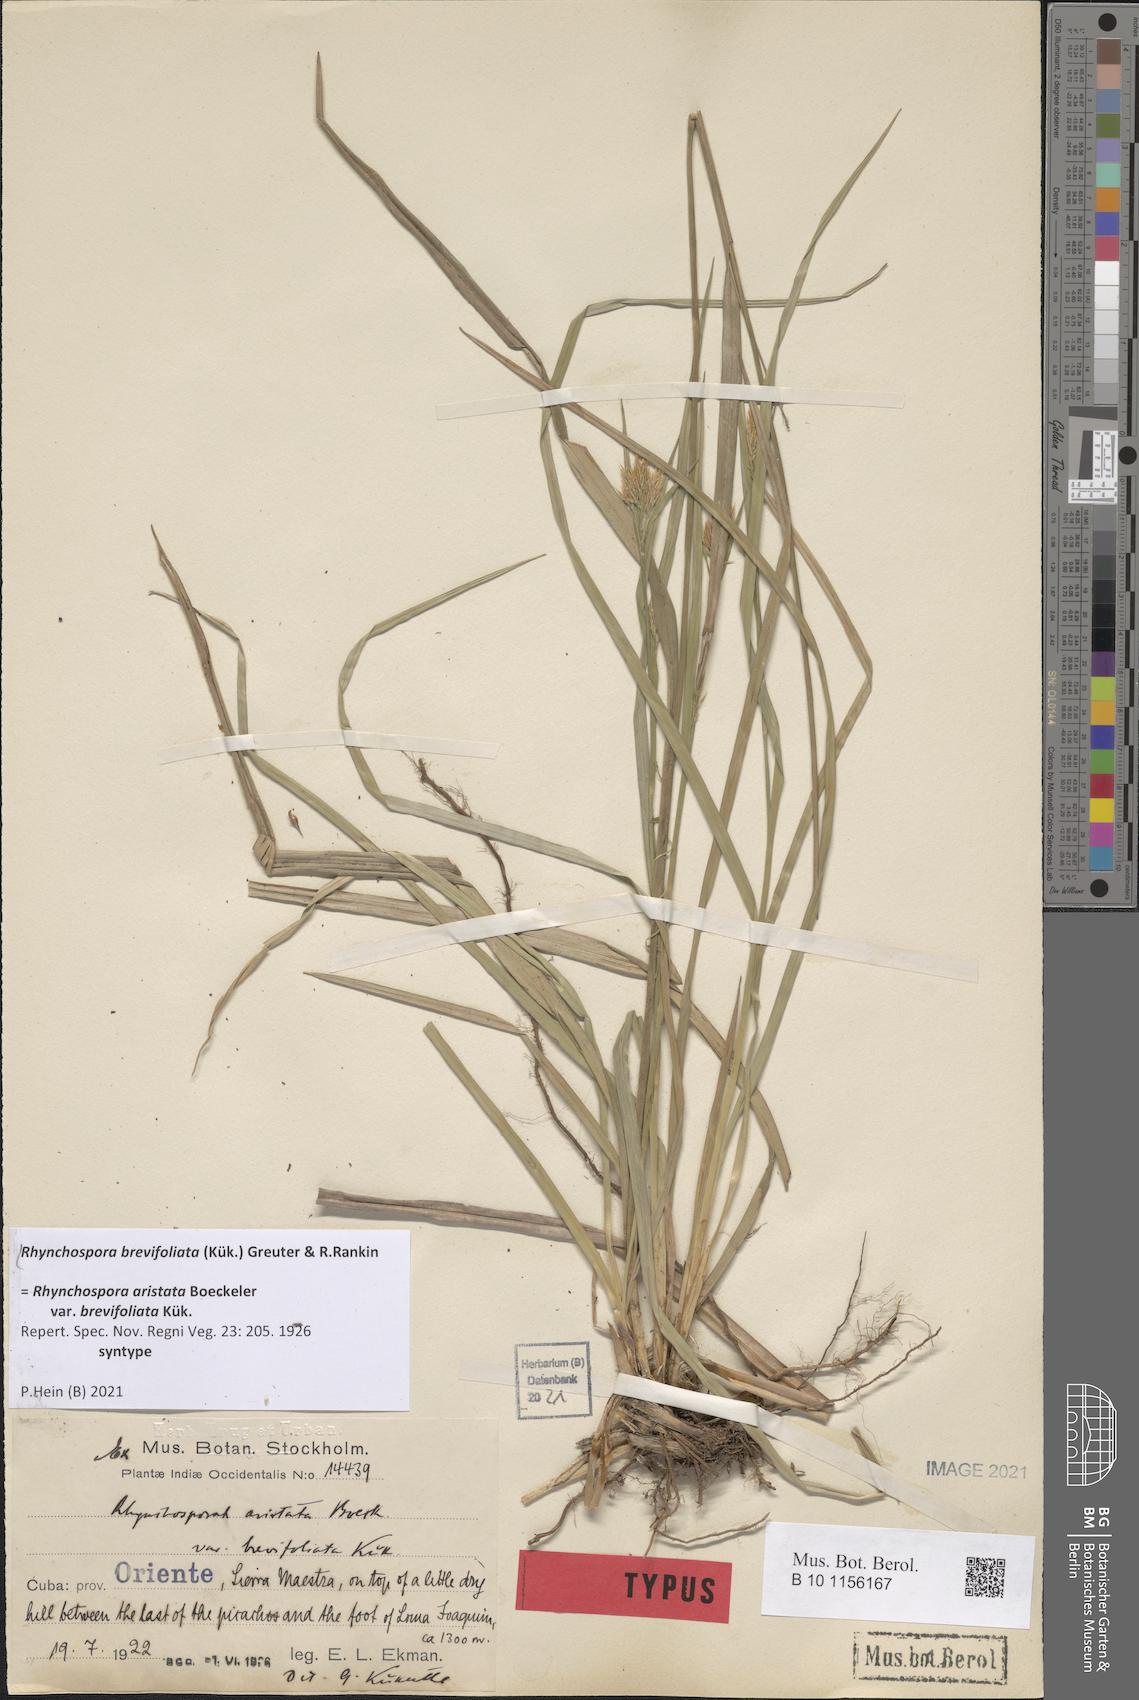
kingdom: Plantae
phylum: Tracheophyta
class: Liliopsida
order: Poales
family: Cyperaceae
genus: Rhynchospora
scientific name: Rhynchospora brevifoliata
